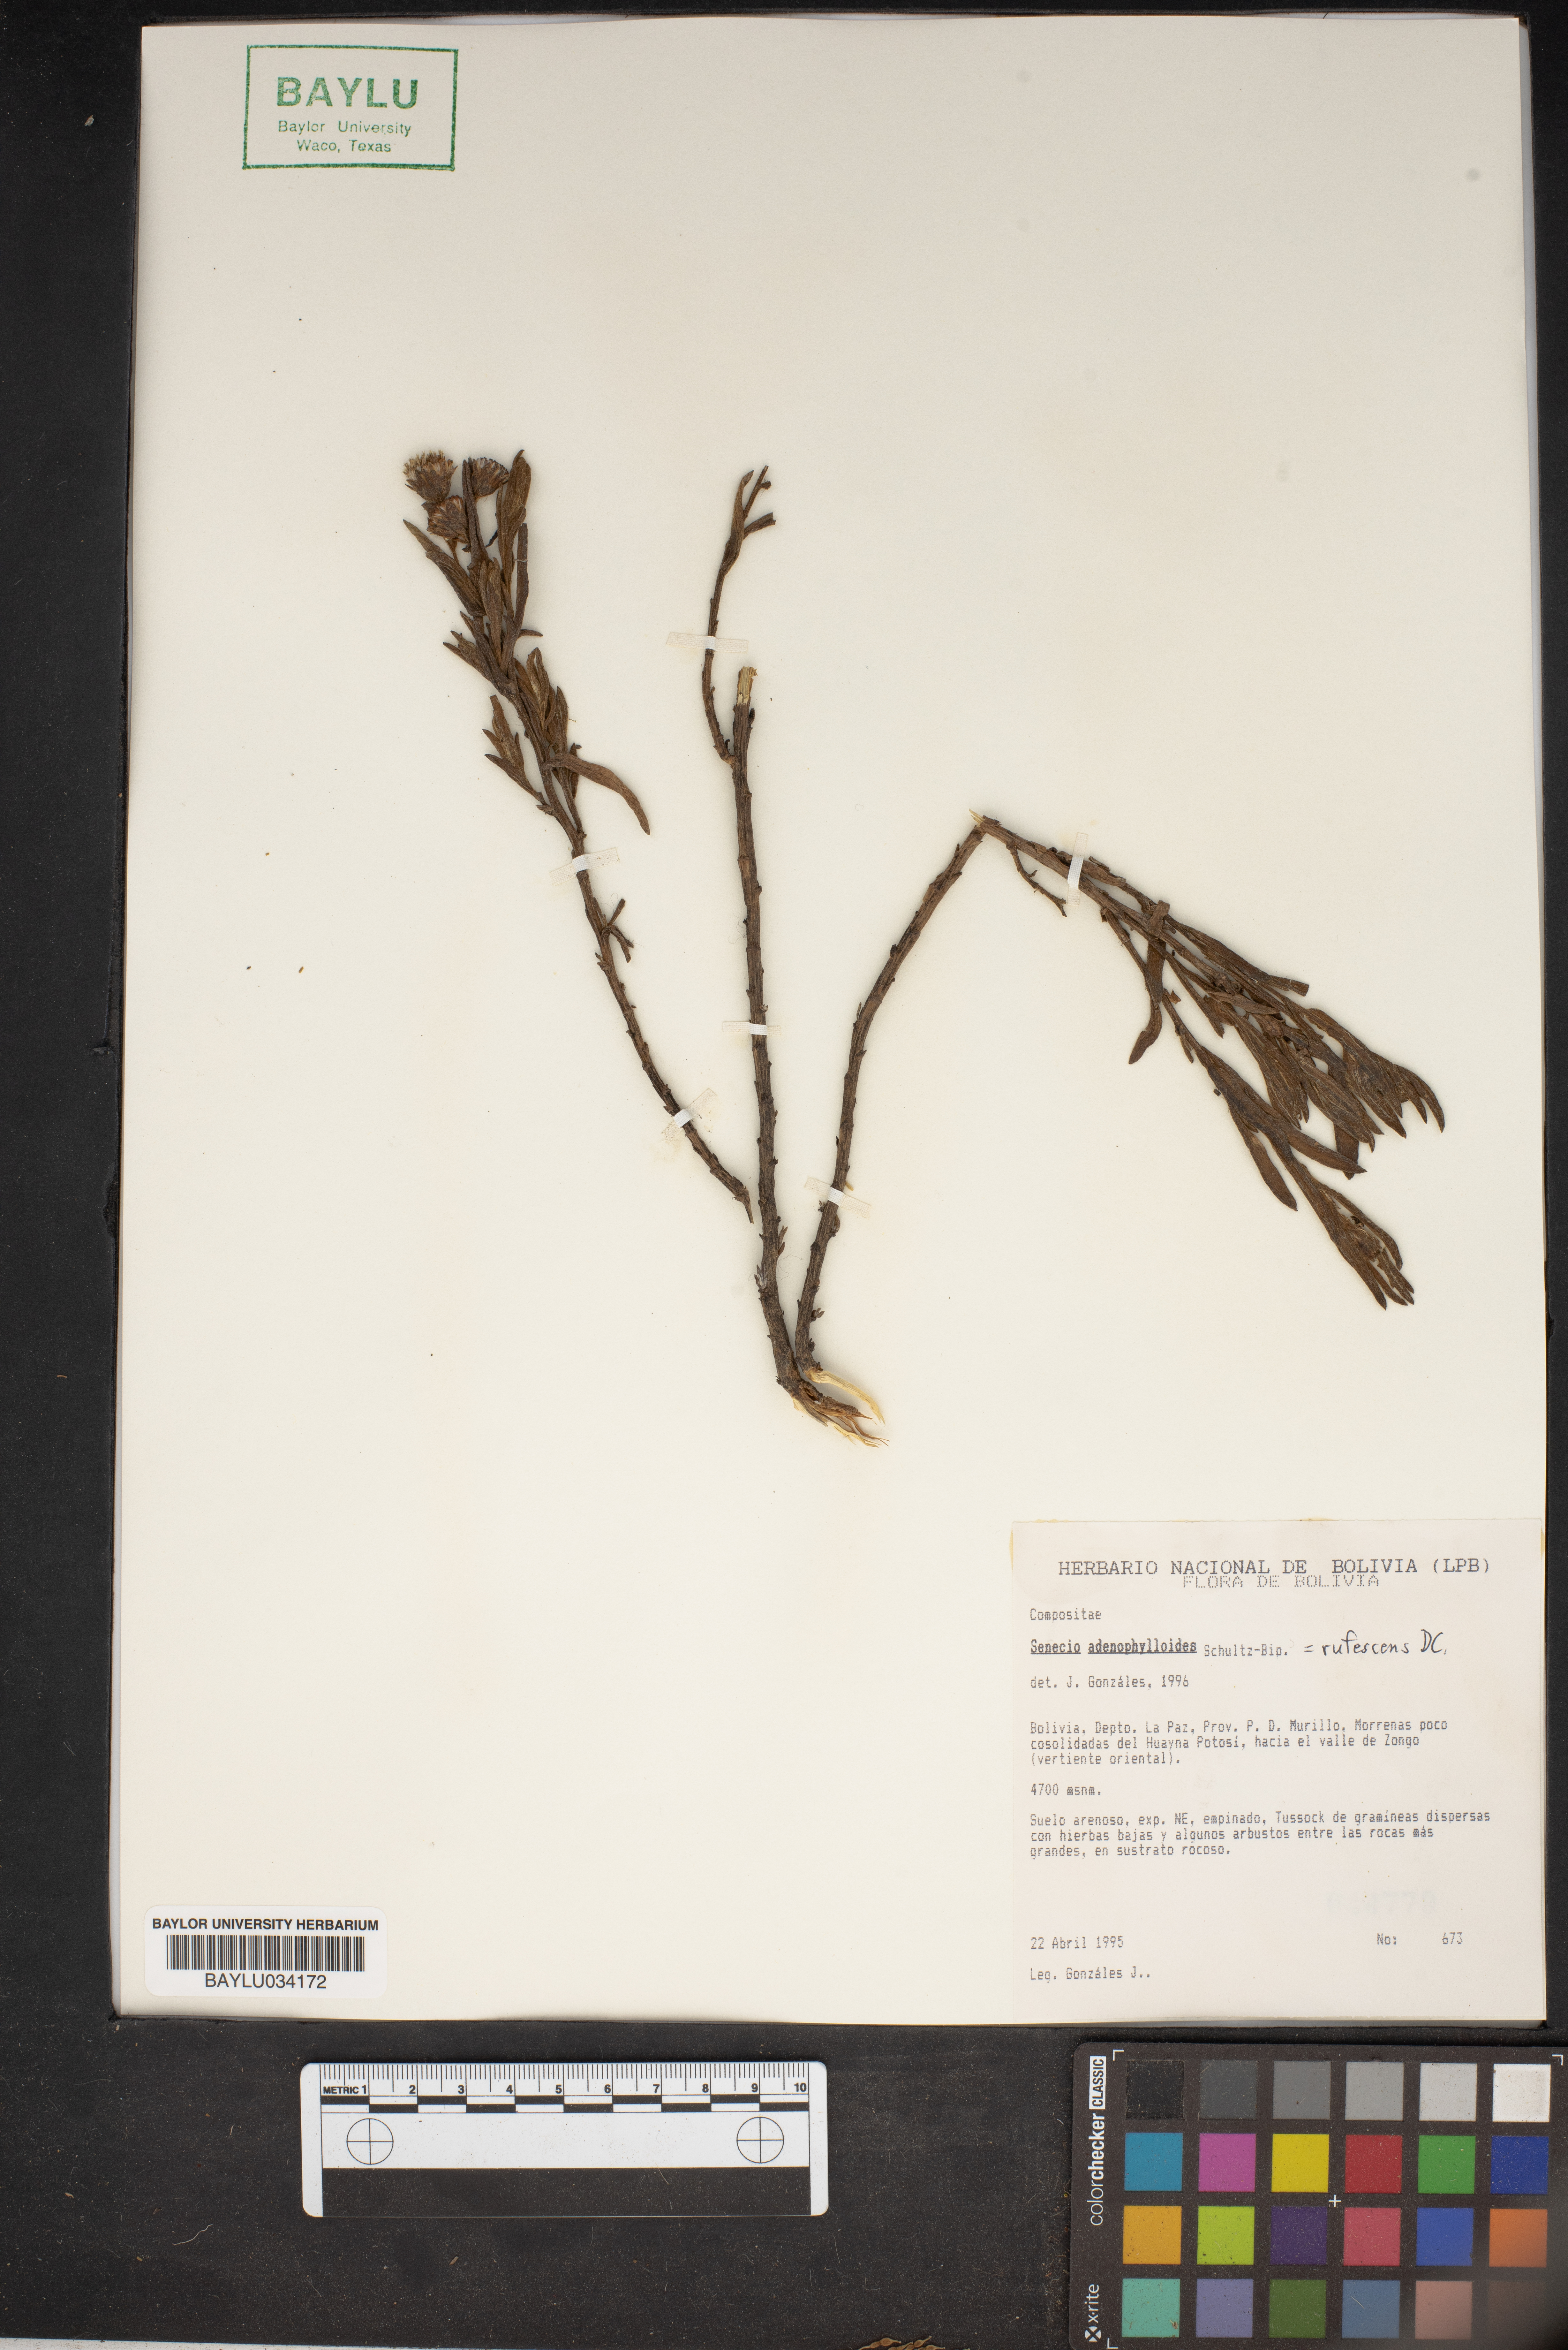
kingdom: Plantae
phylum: Tracheophyta
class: Magnoliopsida
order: Asterales
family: Asteraceae
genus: Senecio
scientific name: Senecio rufescens
